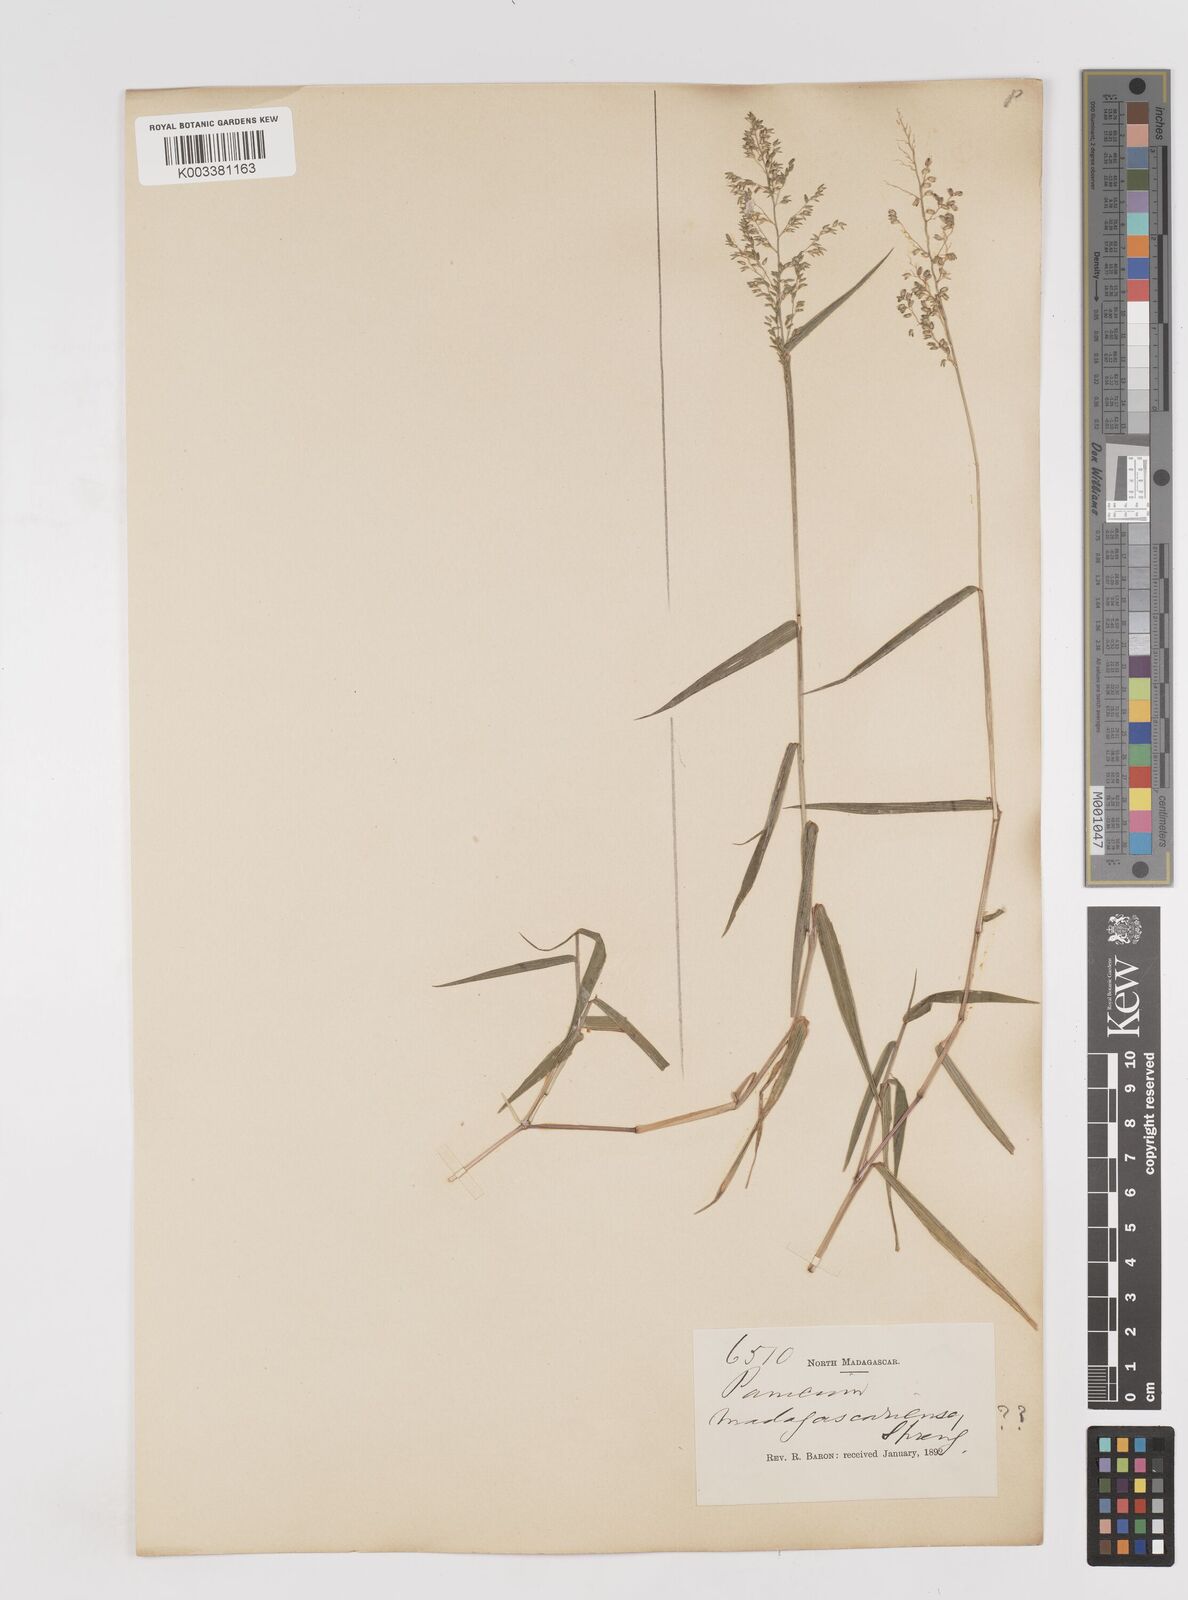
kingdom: Plantae
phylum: Tracheophyta
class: Liliopsida
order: Poales
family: Poaceae
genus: Sacciolepis
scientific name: Sacciolepis curvata
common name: Forest hood grass
